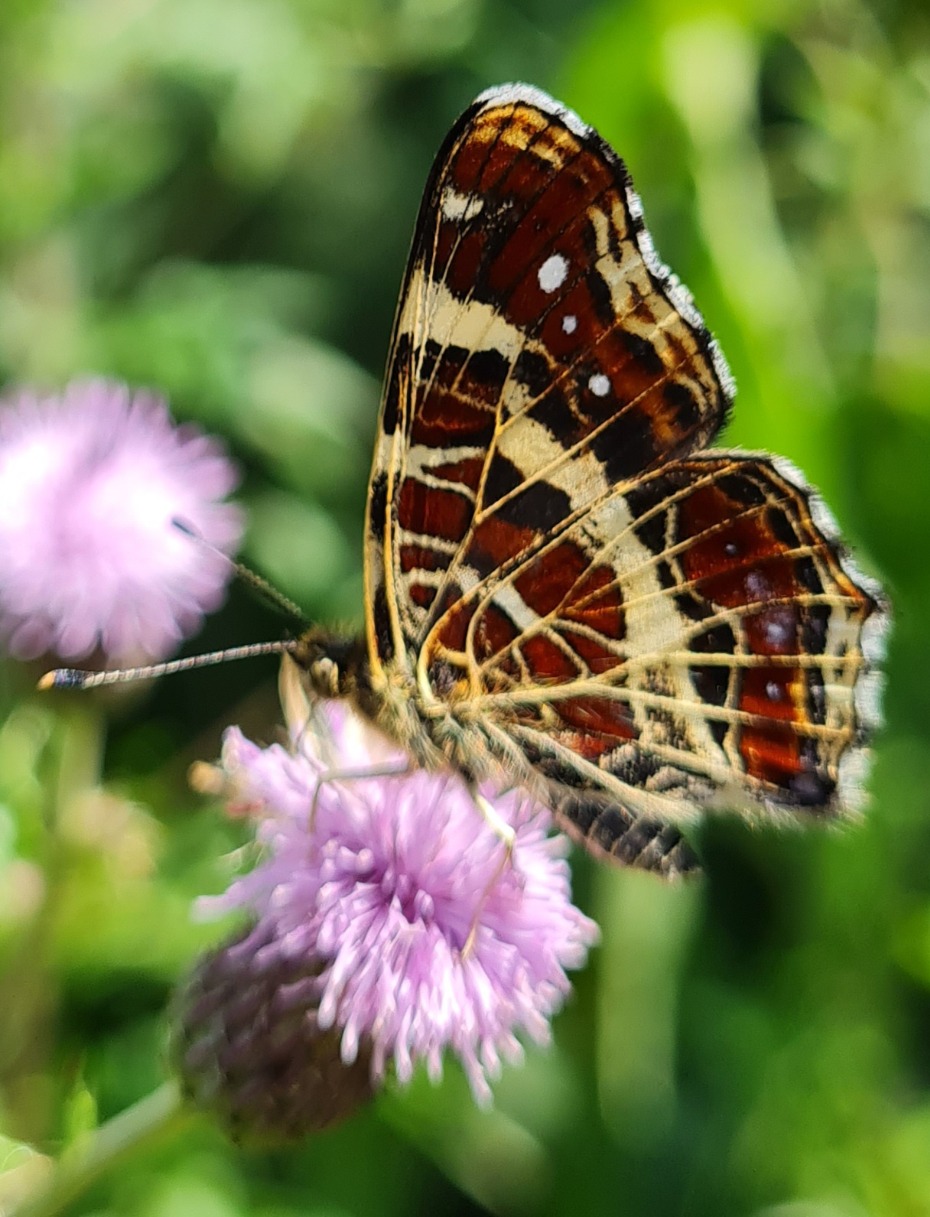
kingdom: Animalia
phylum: Arthropoda
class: Insecta
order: Lepidoptera
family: Nymphalidae
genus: Araschnia
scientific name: Araschnia levana
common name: Nældesommerfugl
